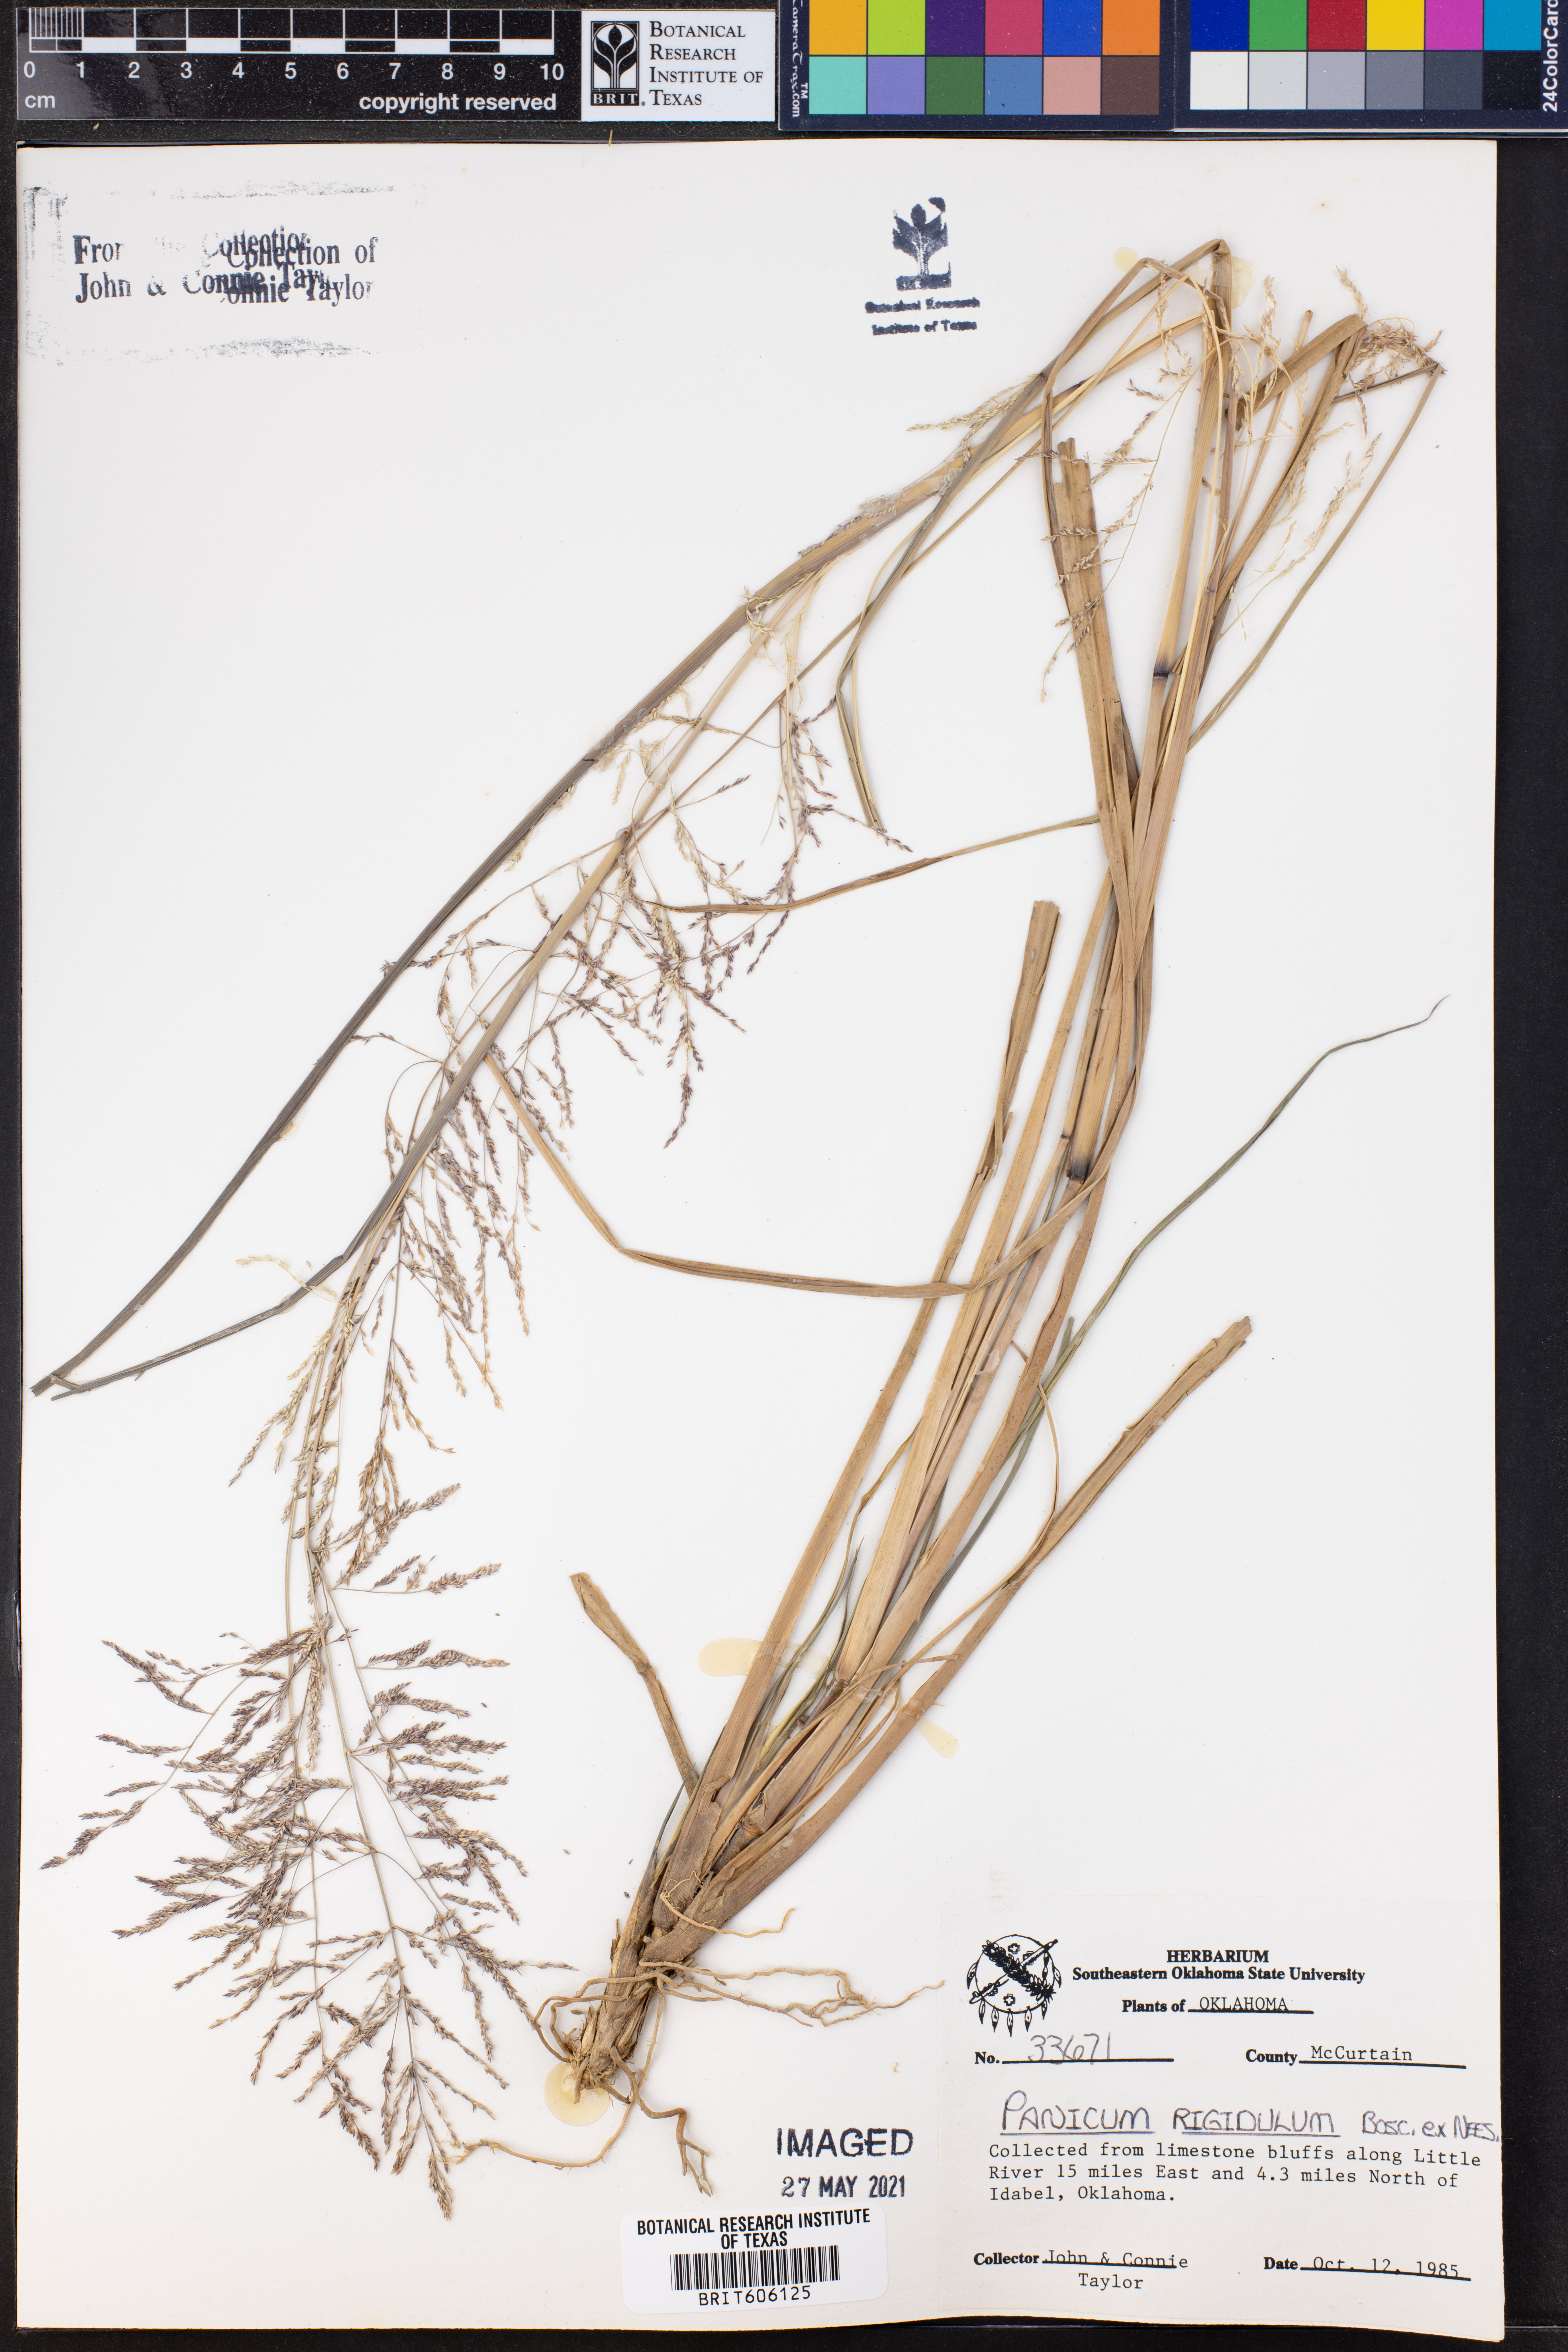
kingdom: Plantae
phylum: Tracheophyta
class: Liliopsida
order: Poales
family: Poaceae
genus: Coleataenia
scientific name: Coleataenia rigidula
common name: Redtop panicgrass
